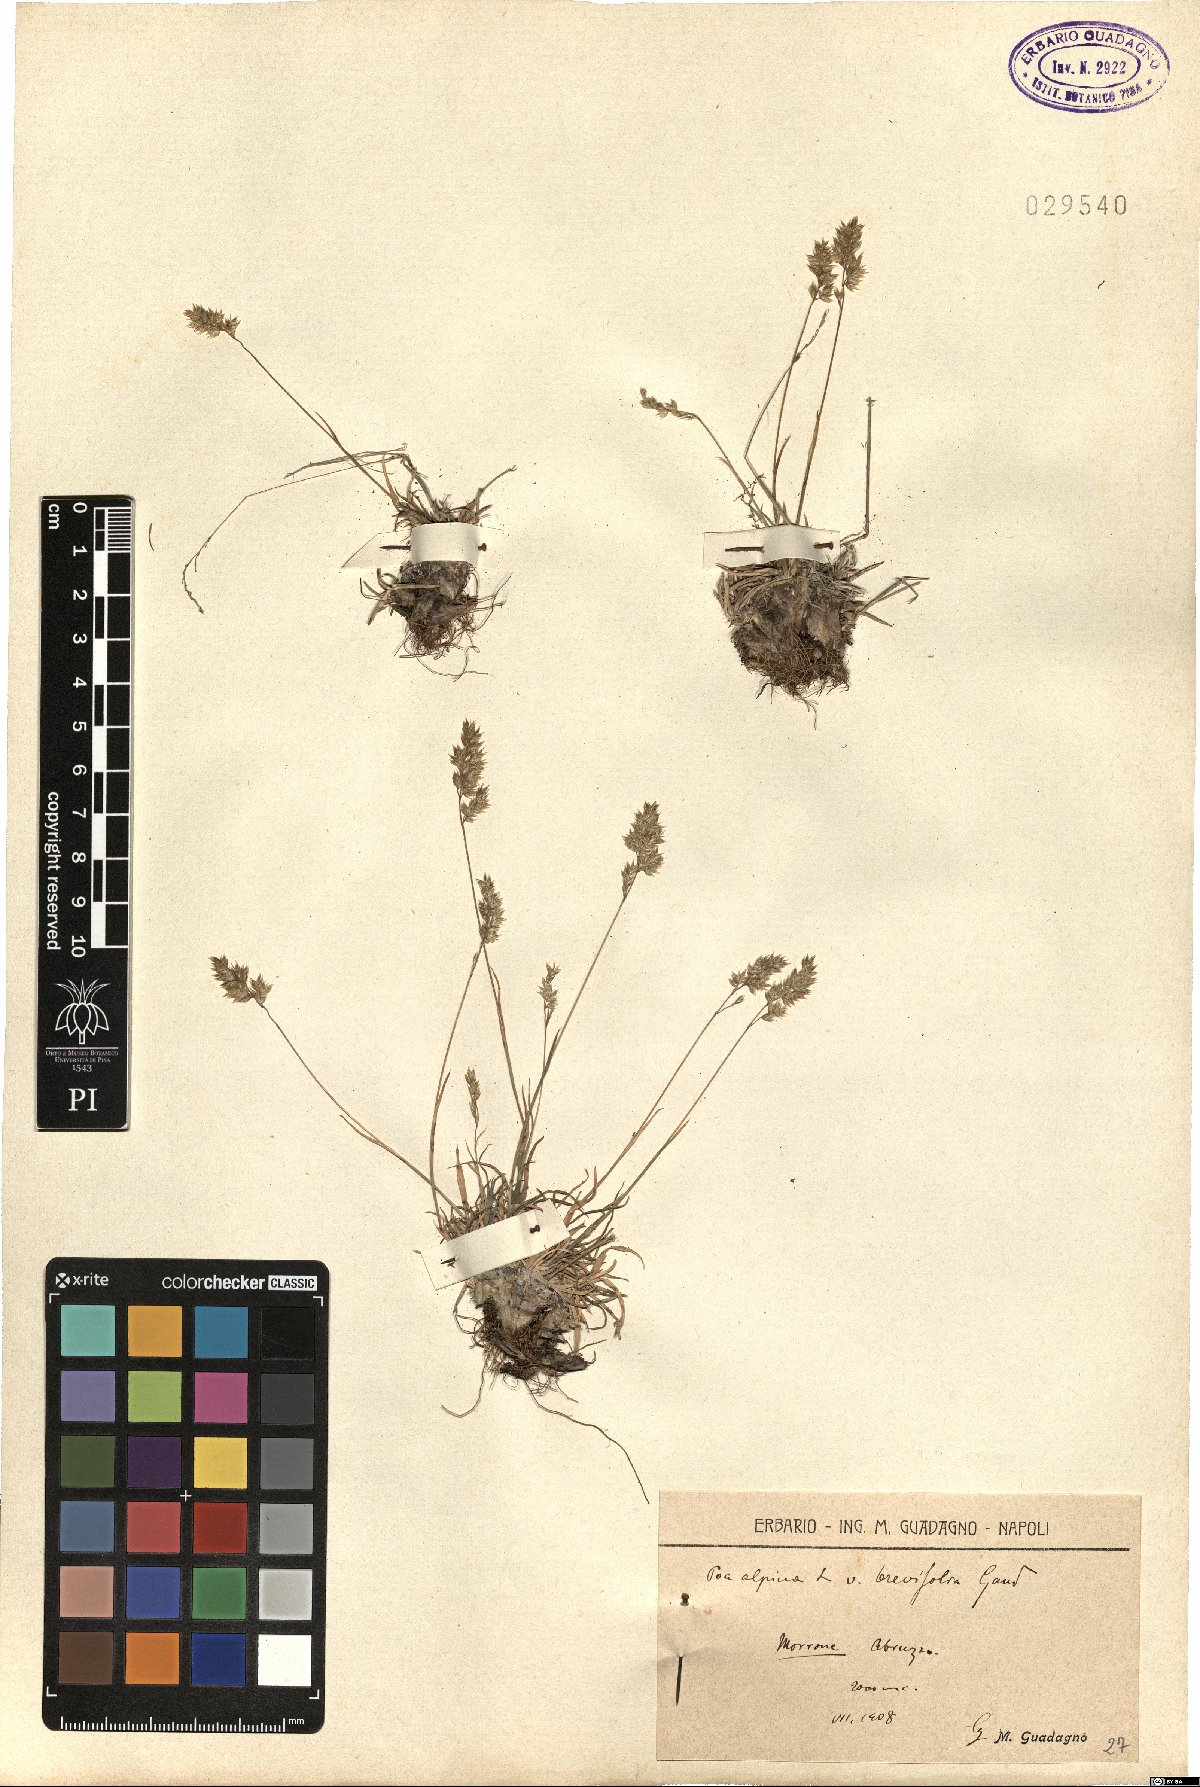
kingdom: Plantae
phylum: Tracheophyta
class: Liliopsida
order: Poales
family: Poaceae
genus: Poa
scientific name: Poa alpina
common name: Alpine bluegrass
